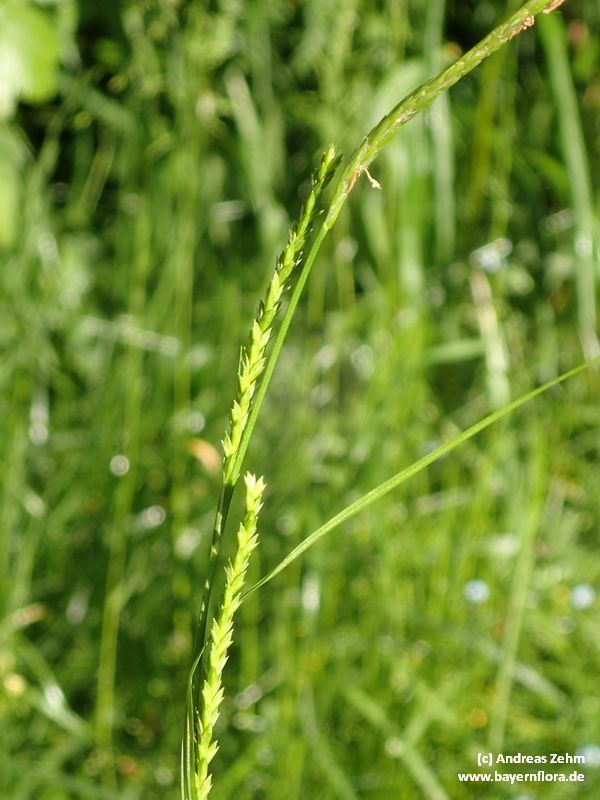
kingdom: Plantae
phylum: Tracheophyta
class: Liliopsida
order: Poales
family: Cyperaceae
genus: Carex
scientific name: Carex strigosa
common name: Thin-spiked wood-sedge
